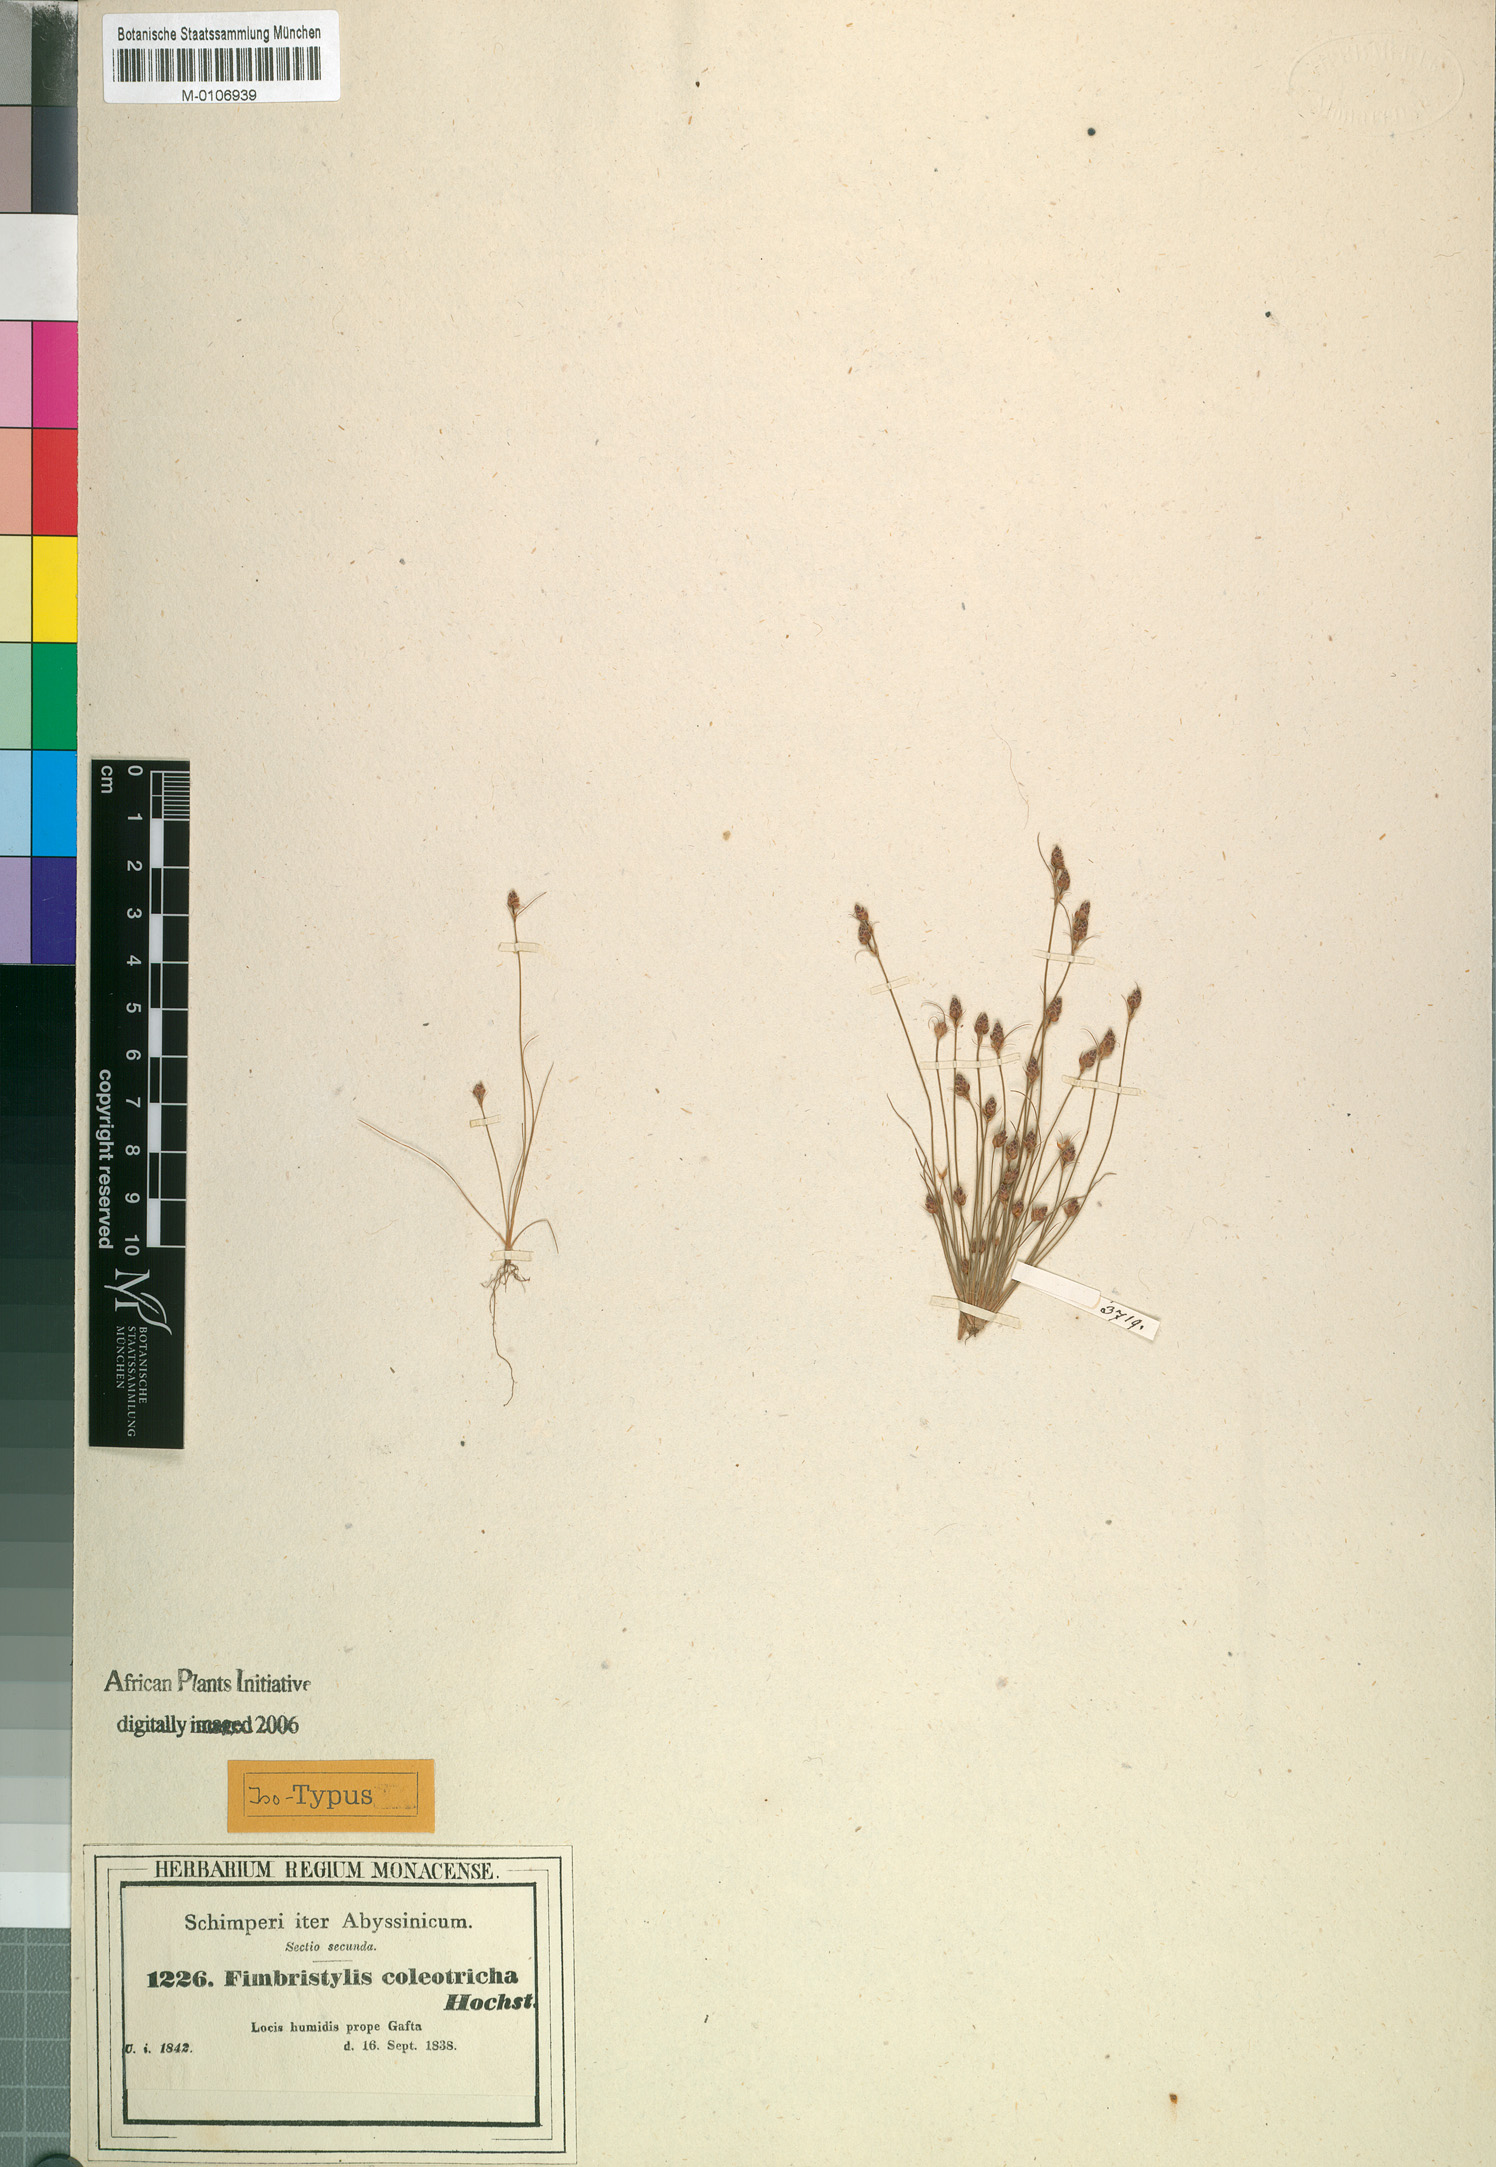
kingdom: Plantae
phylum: Tracheophyta
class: Liliopsida
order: Poales
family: Cyperaceae
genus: Bulbostylis
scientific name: Bulbostylis coleotricha
